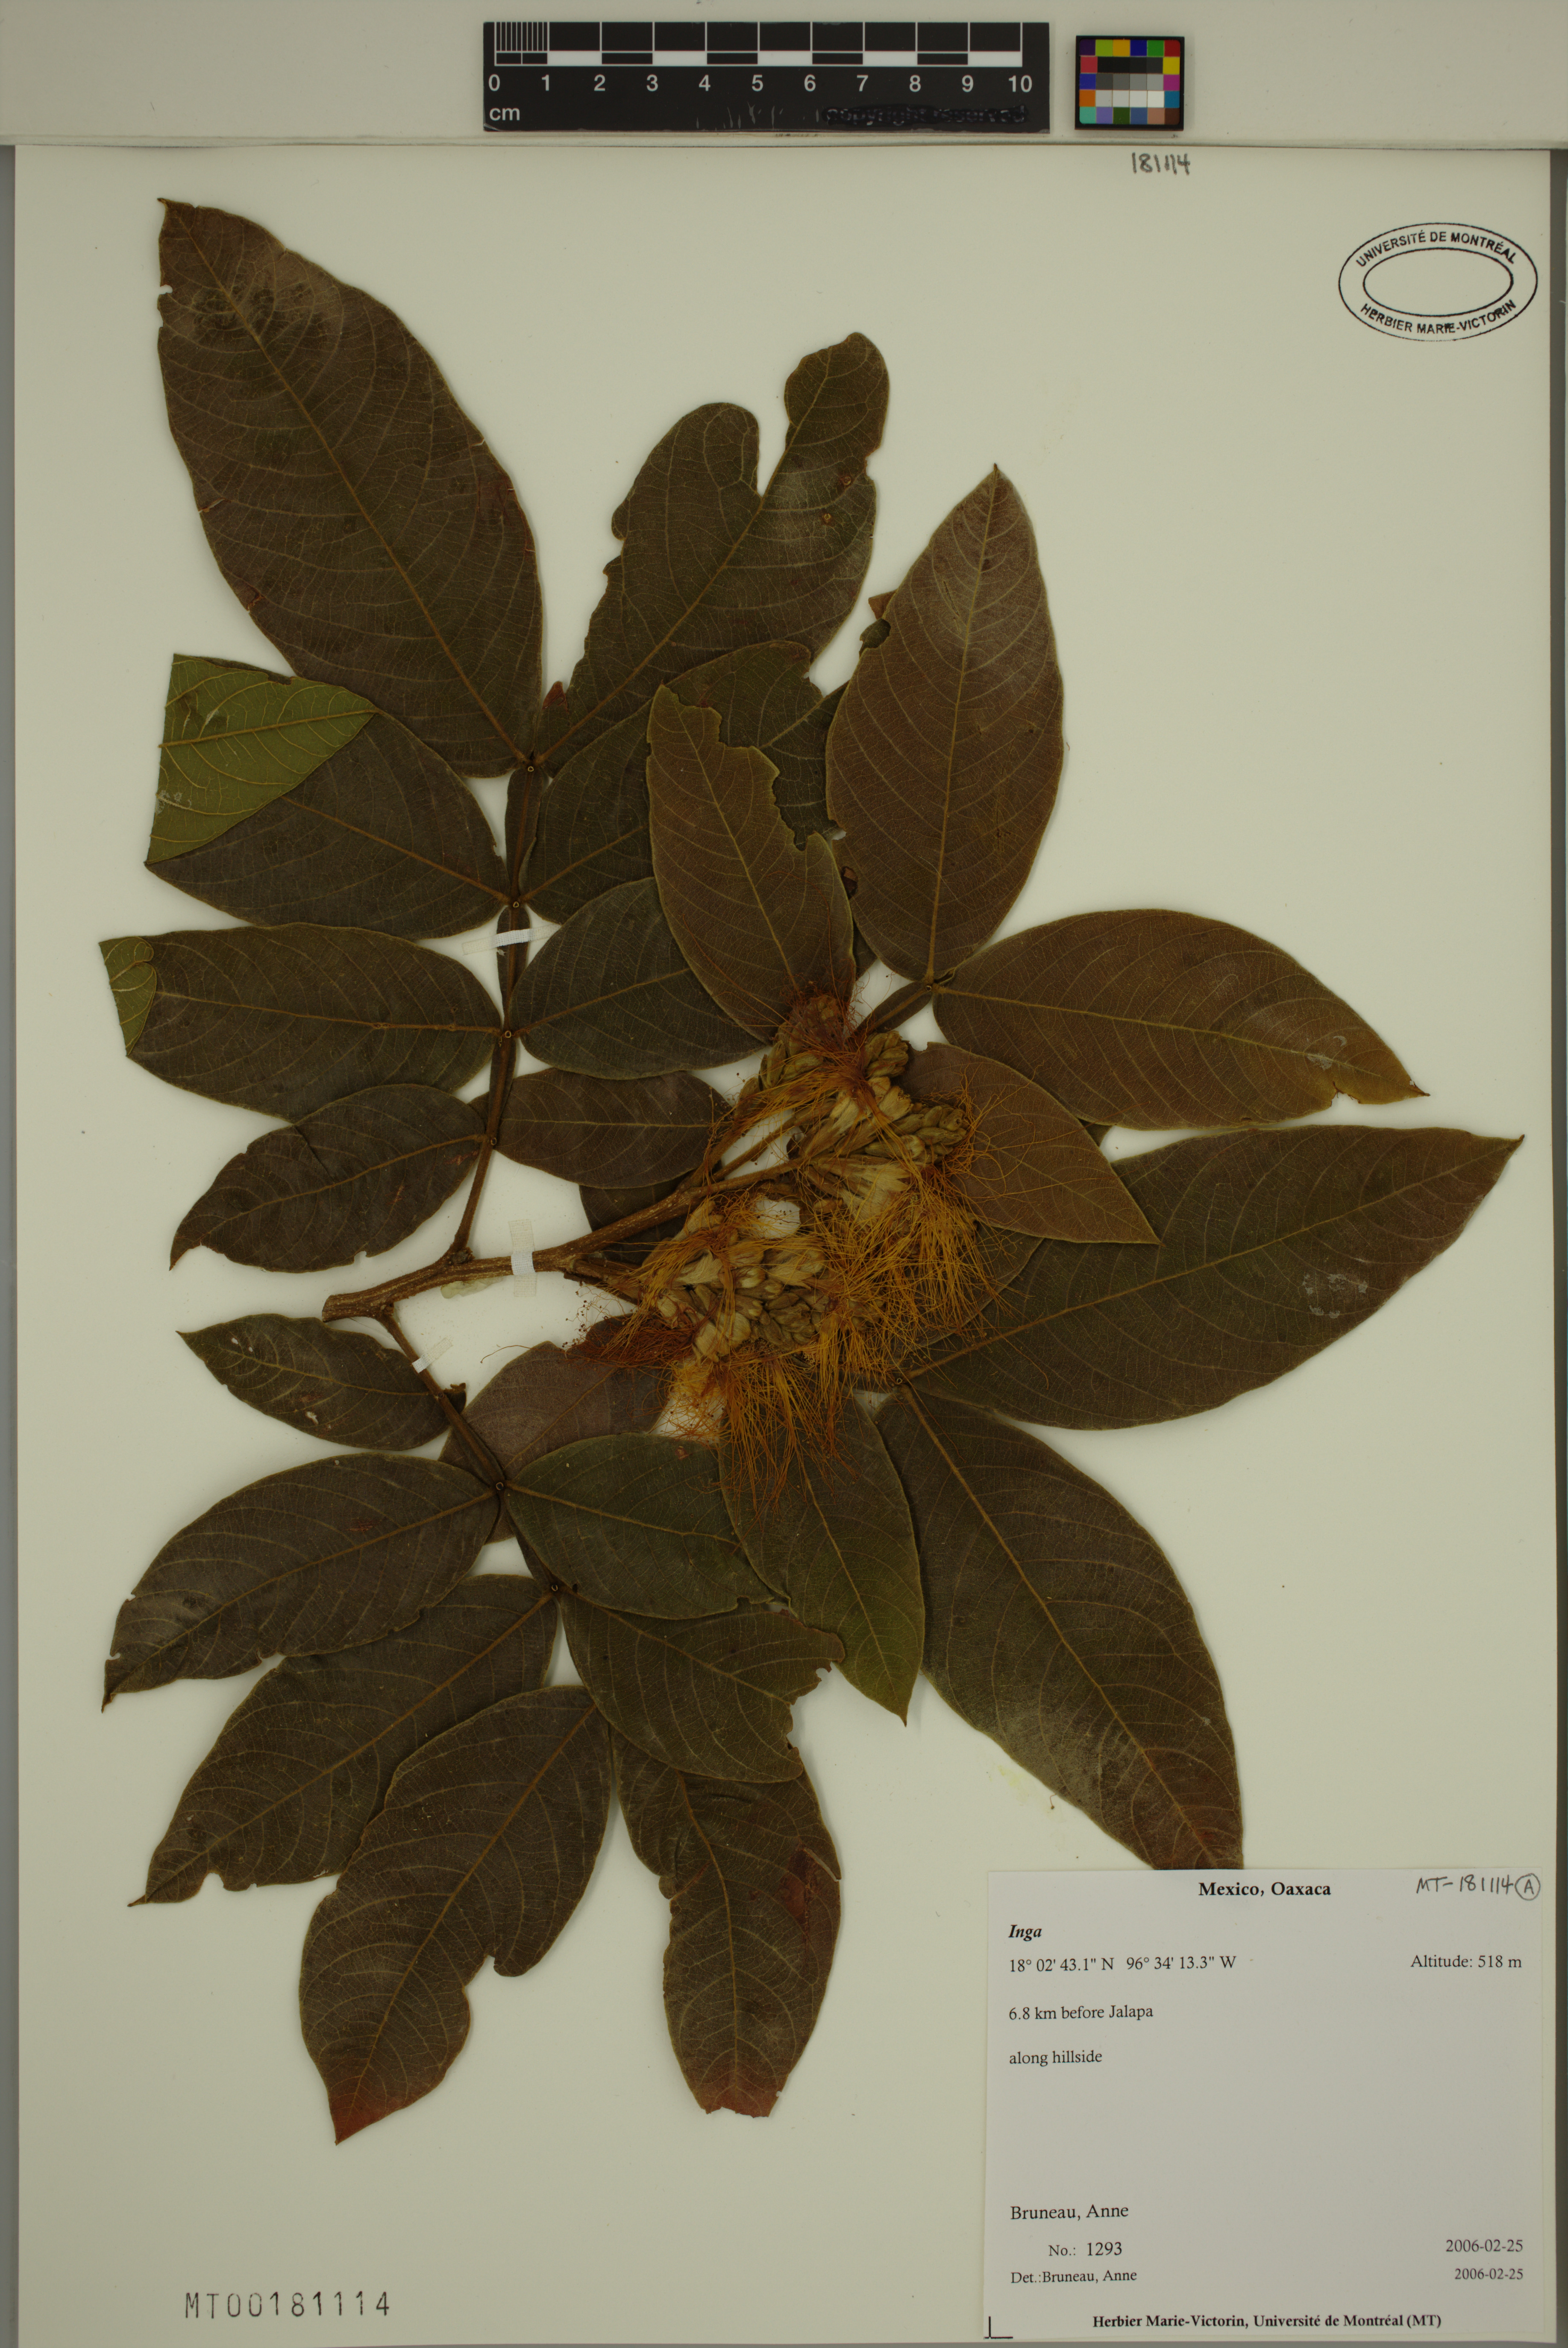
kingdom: Plantae
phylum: Tracheophyta
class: Magnoliopsida
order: Fabales
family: Fabaceae
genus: Inga
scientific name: Inga
